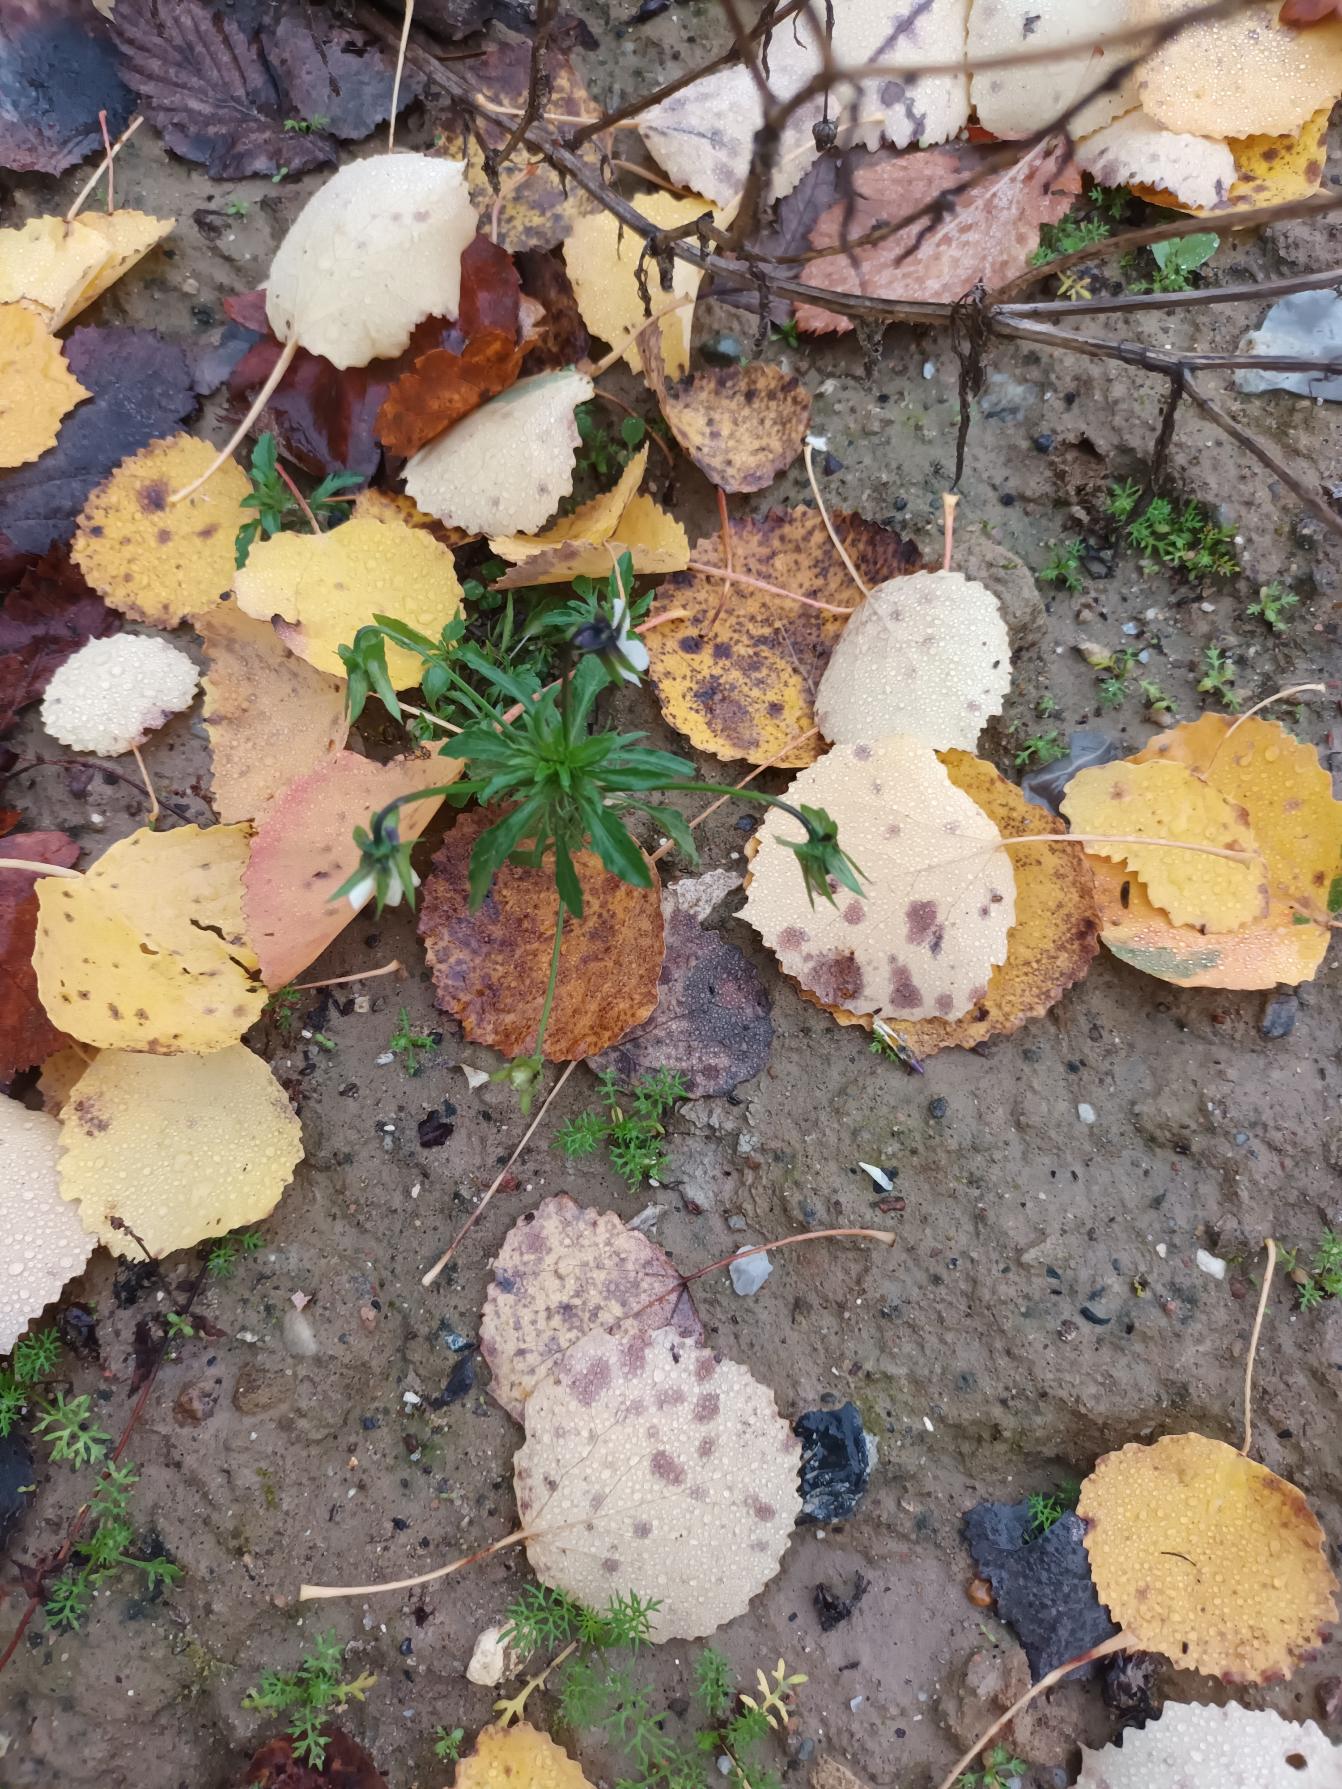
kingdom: Plantae
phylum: Tracheophyta
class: Magnoliopsida
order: Malpighiales
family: Violaceae
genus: Viola
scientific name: Viola arvensis
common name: Ager-stedmoderblomst
